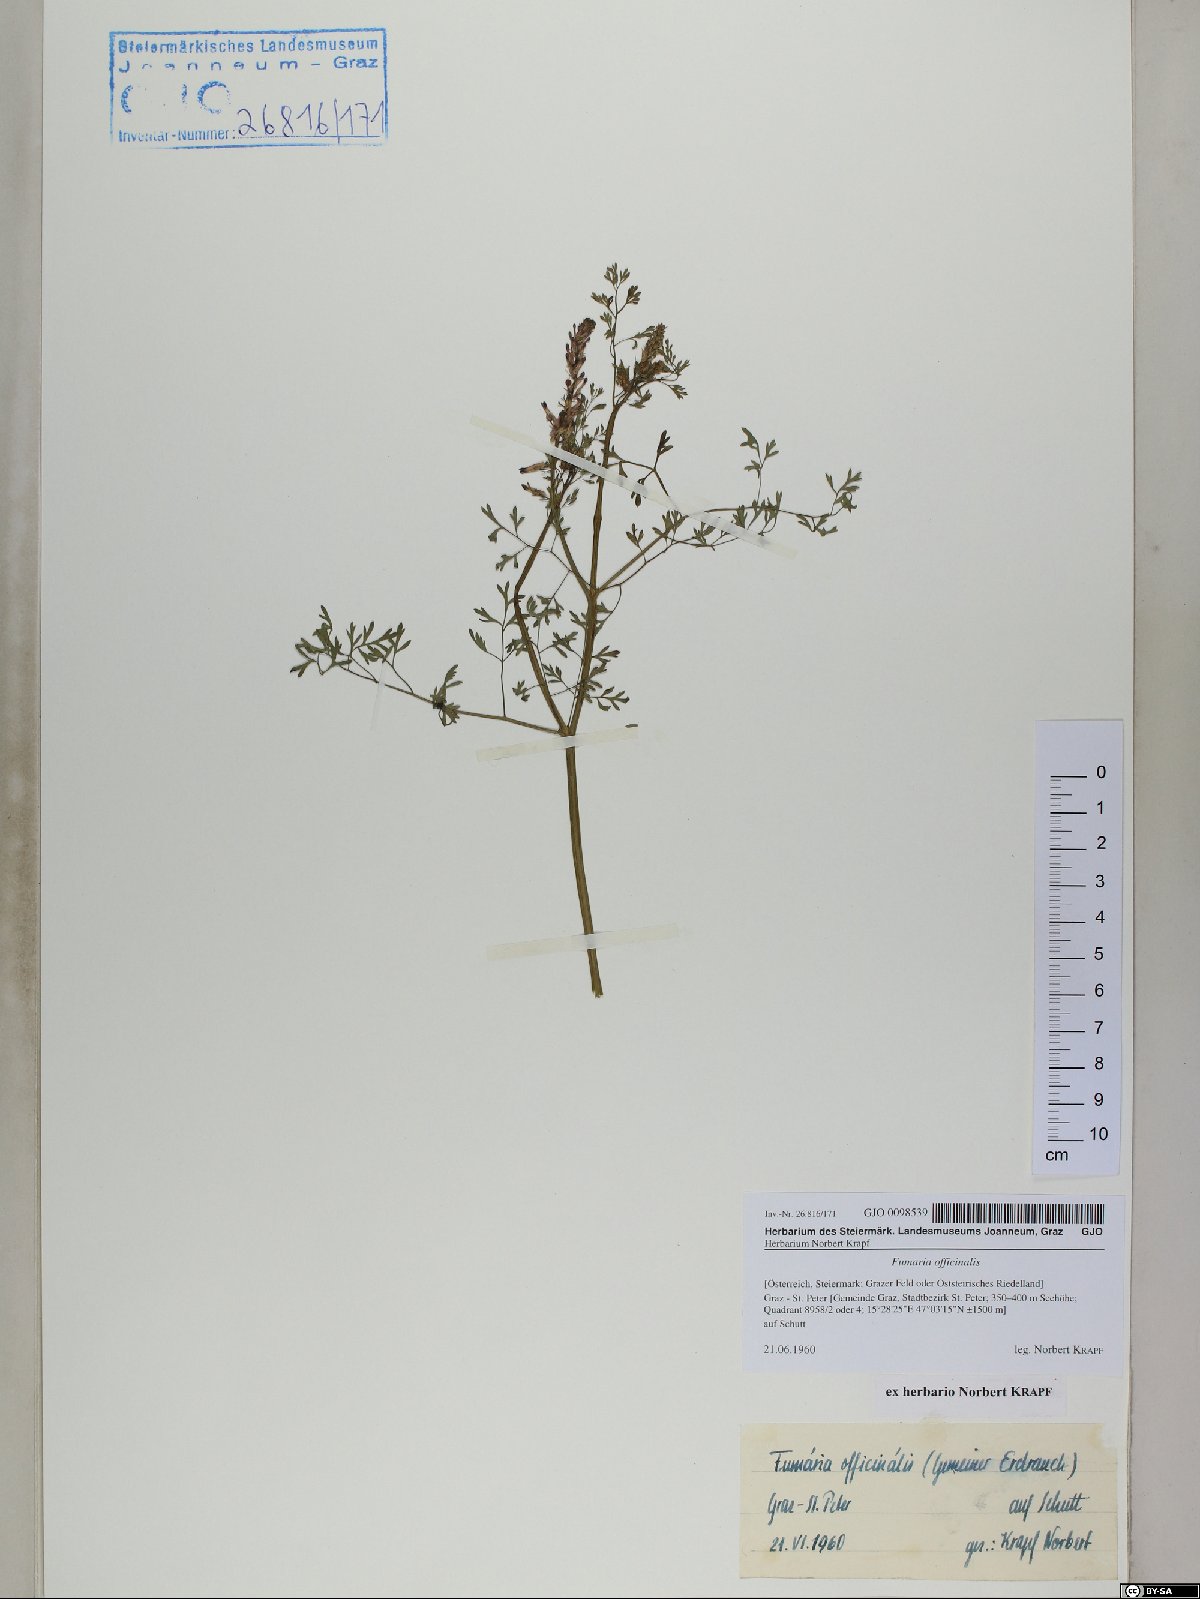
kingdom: Plantae
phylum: Tracheophyta
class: Magnoliopsida
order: Ranunculales
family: Papaveraceae
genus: Fumaria
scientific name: Fumaria officinalis
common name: Common fumitory
